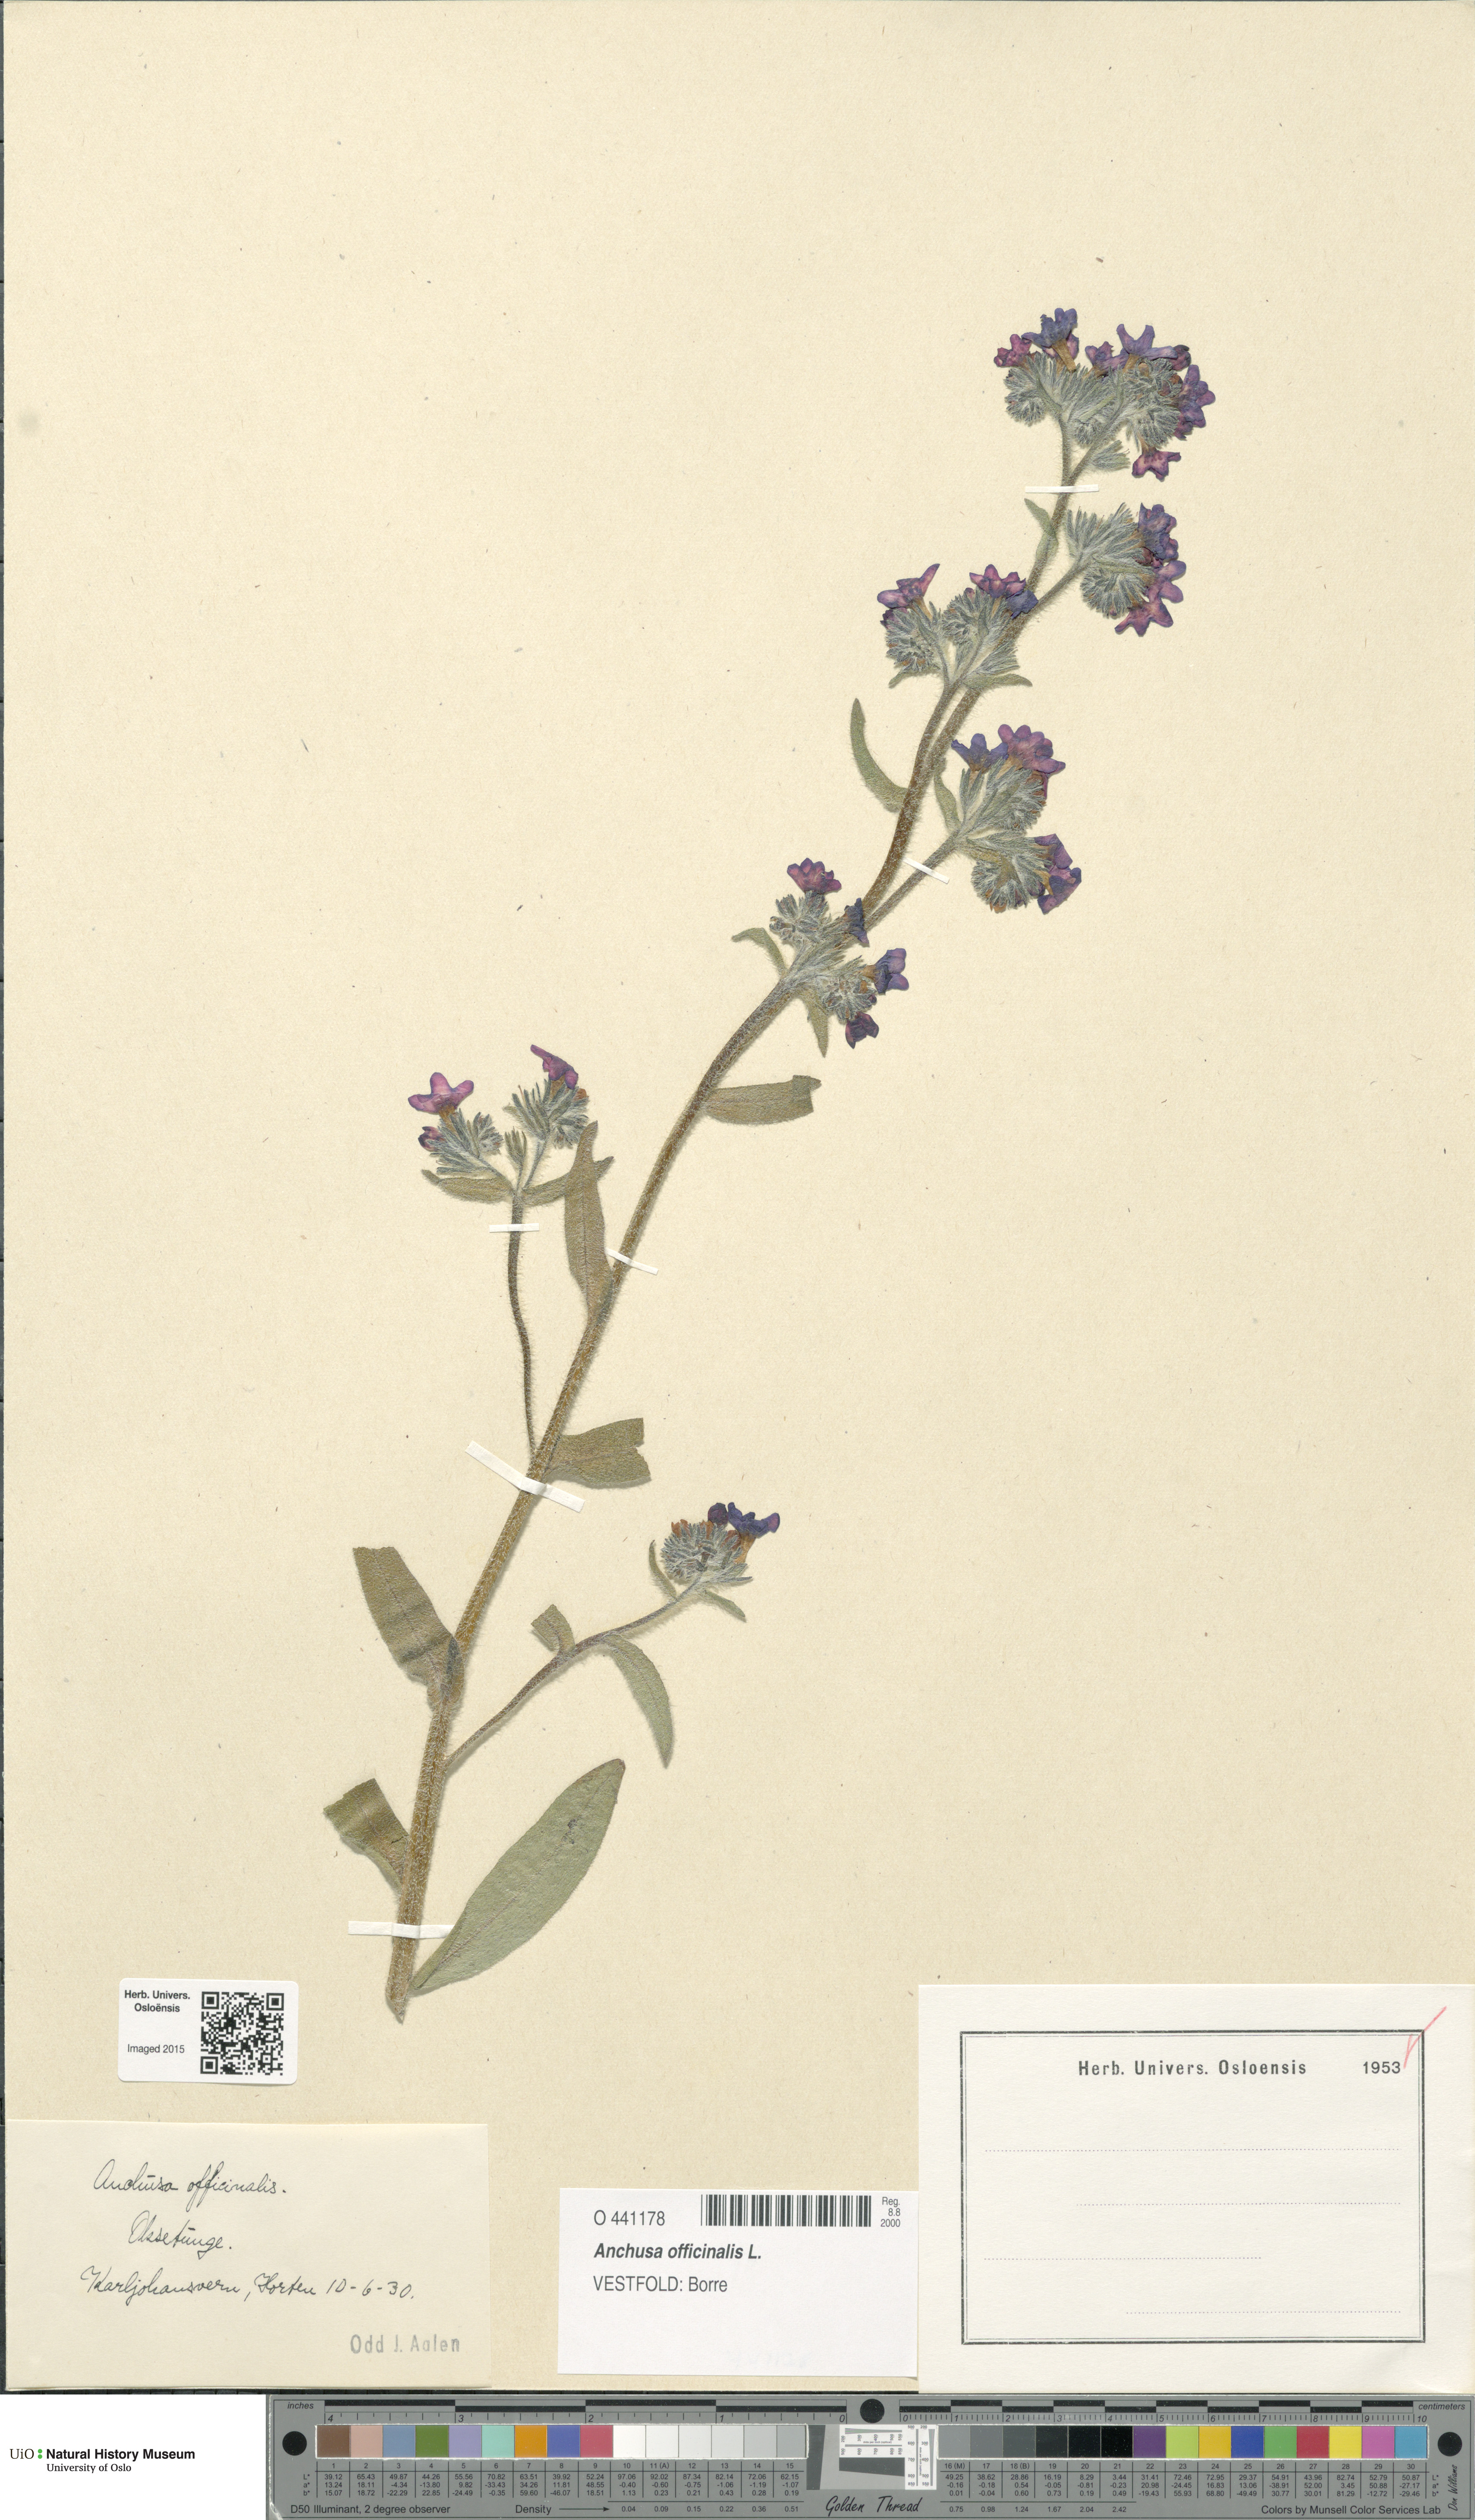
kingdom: Plantae
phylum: Tracheophyta
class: Magnoliopsida
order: Boraginales
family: Boraginaceae
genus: Anchusa
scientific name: Anchusa officinalis
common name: Alkanet
